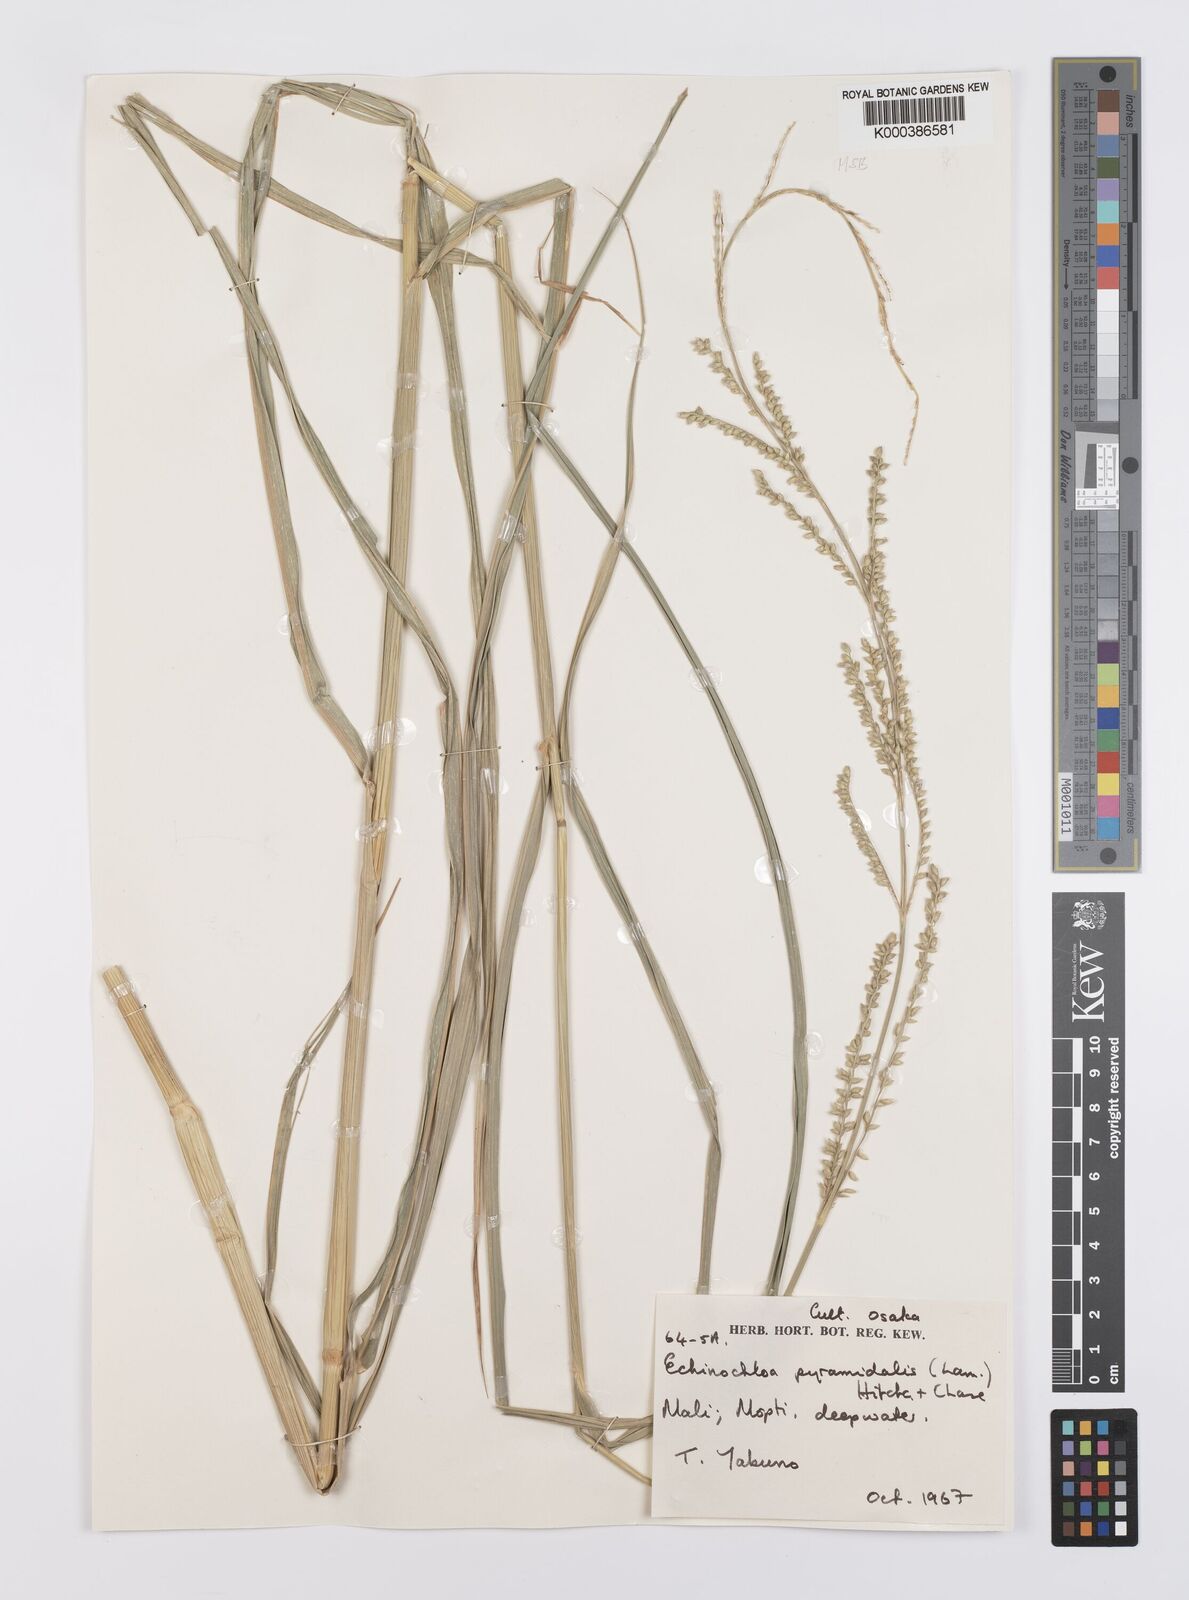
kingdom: Plantae
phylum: Tracheophyta
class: Liliopsida
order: Poales
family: Poaceae
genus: Echinochloa
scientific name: Echinochloa pyramidalis
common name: Antelope grass
